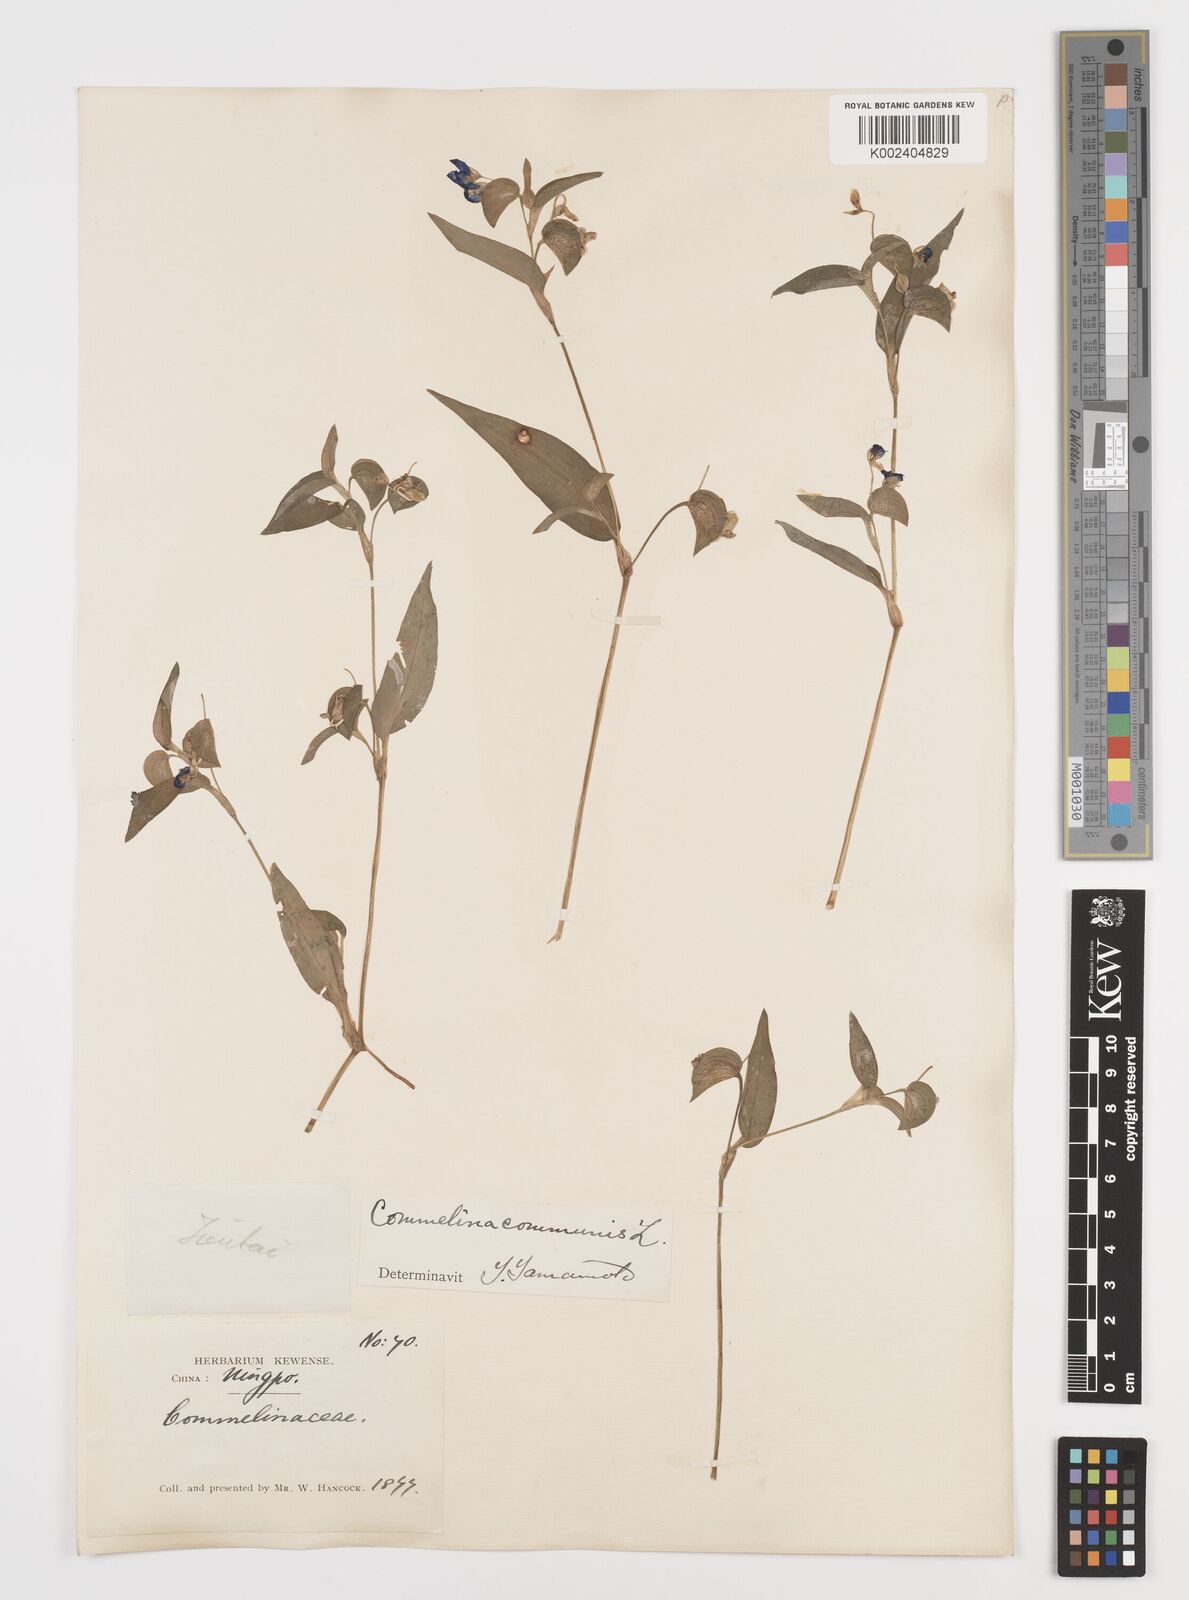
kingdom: Plantae
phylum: Tracheophyta
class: Liliopsida
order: Commelinales
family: Commelinaceae
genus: Commelina
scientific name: Commelina communis
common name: Asiatic dayflower
